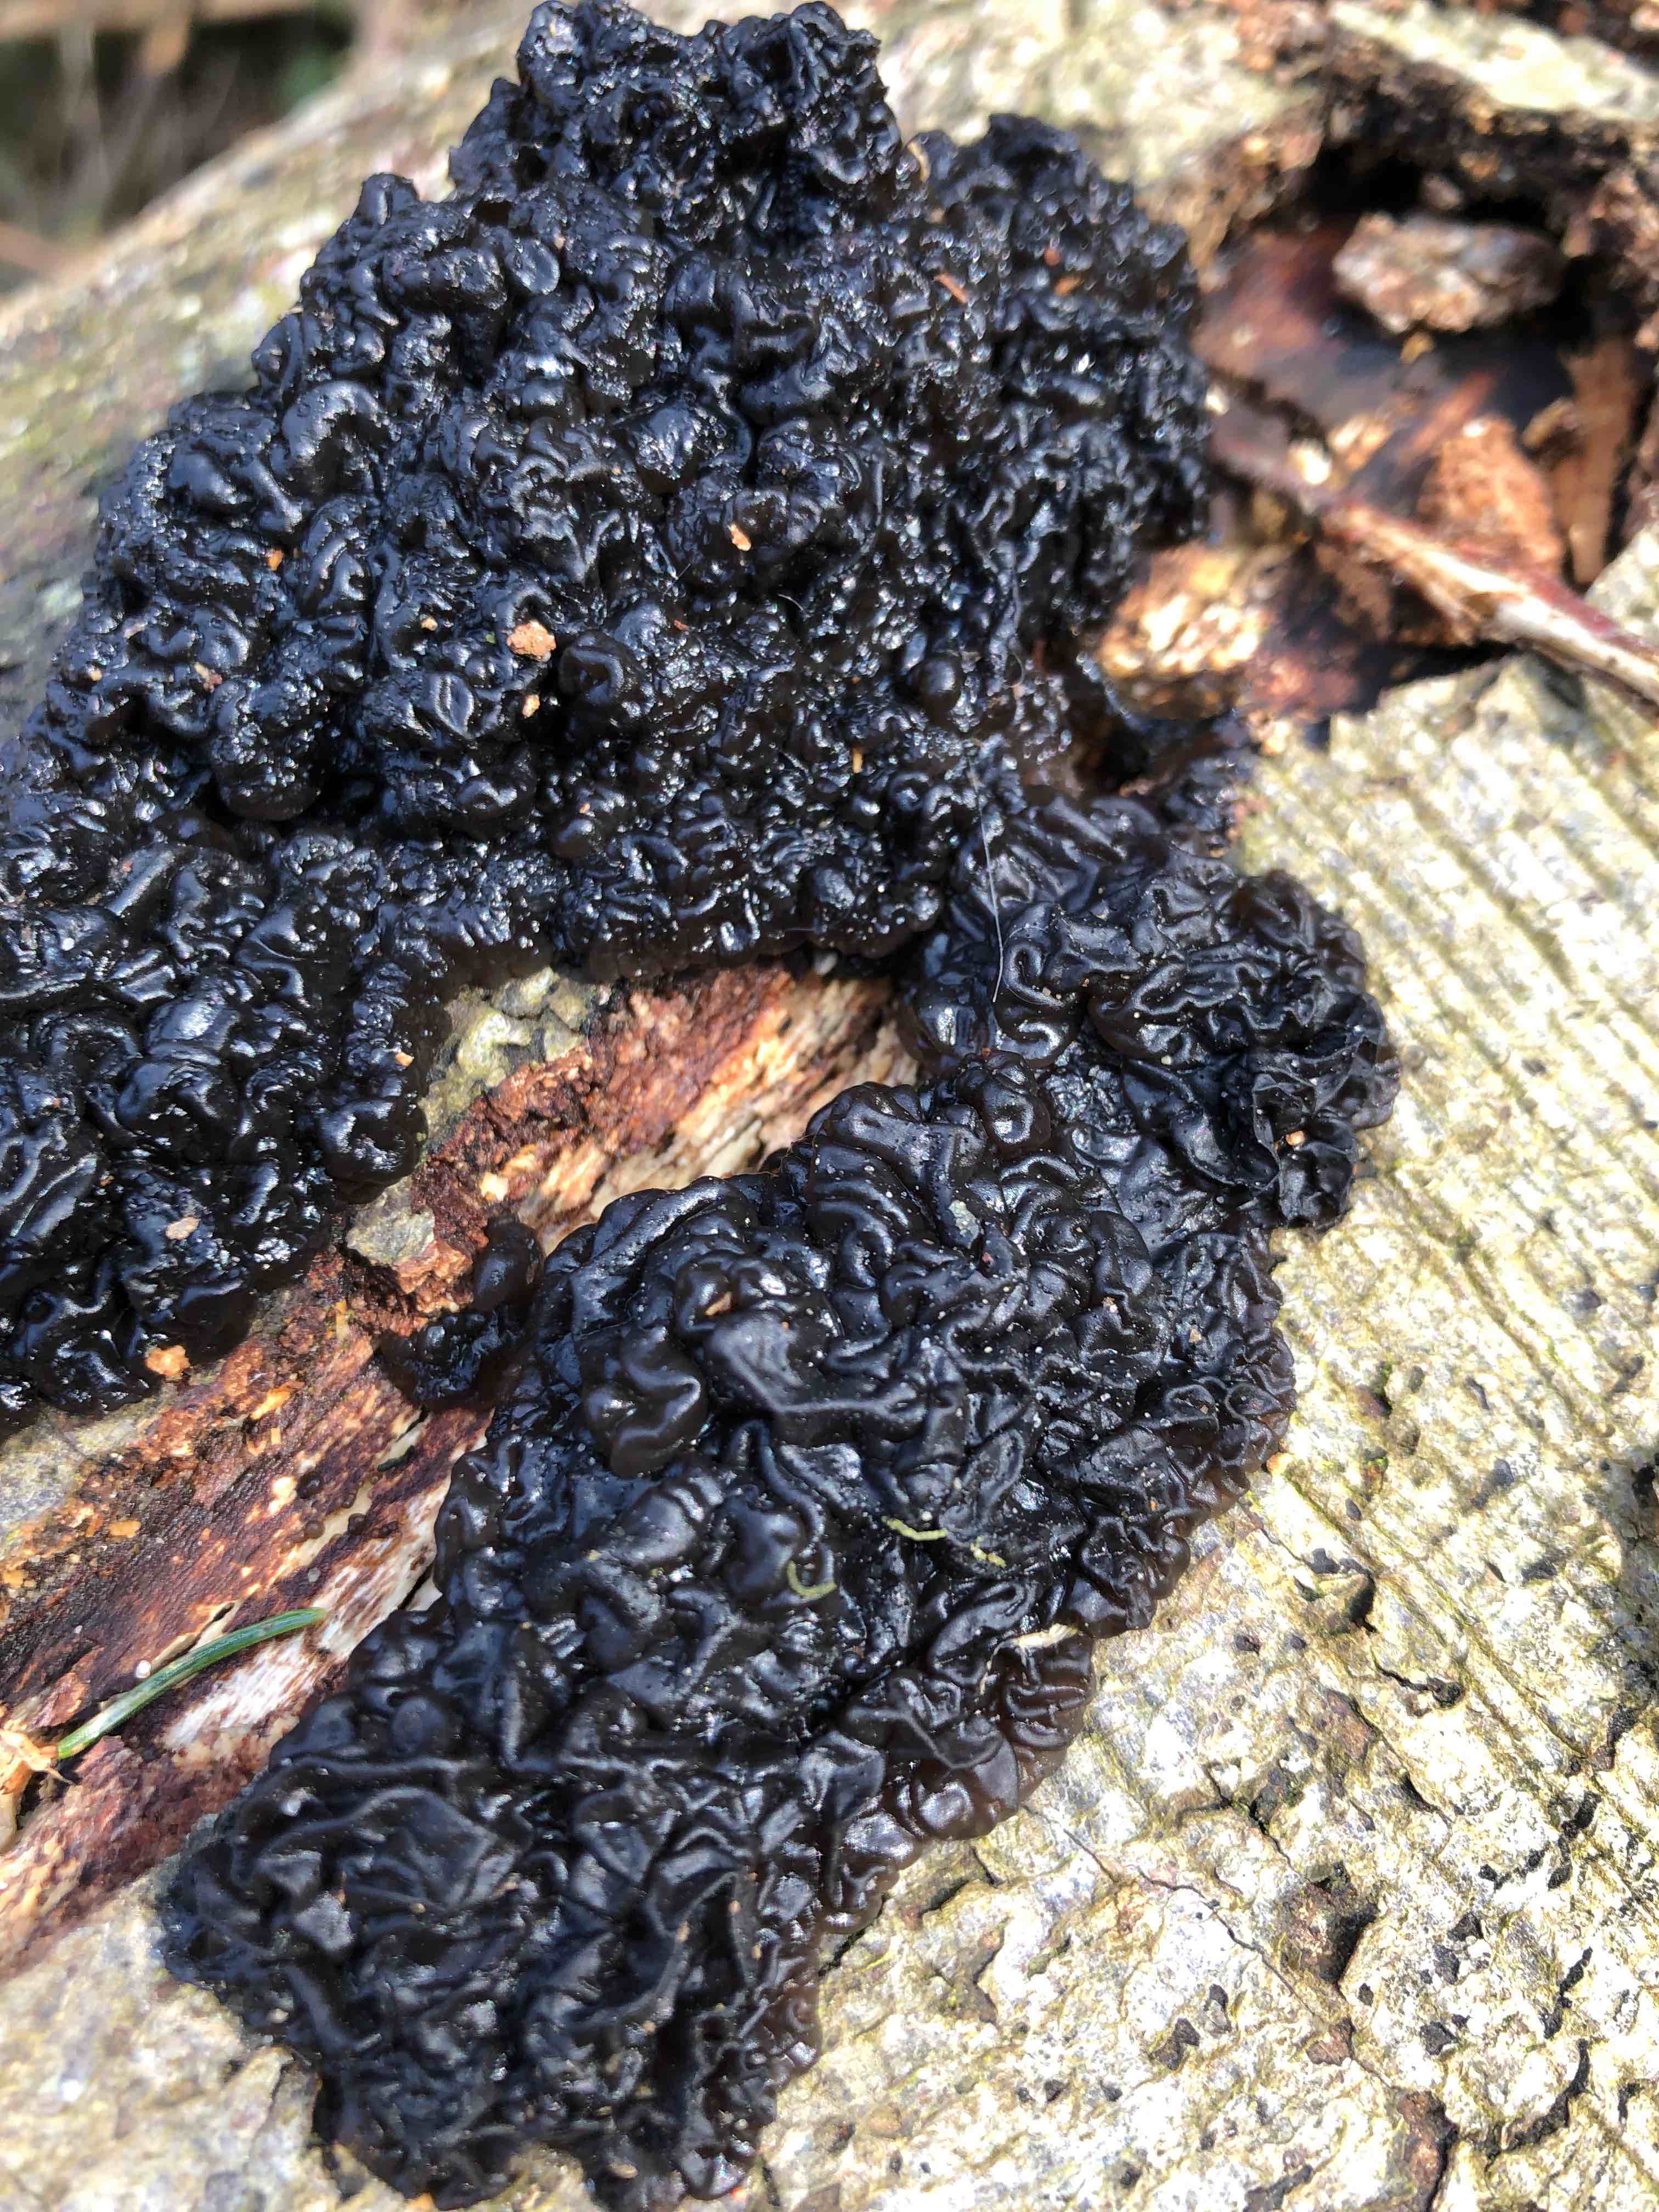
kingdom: Fungi
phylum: Basidiomycota
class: Agaricomycetes
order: Auriculariales
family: Auriculariaceae
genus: Exidia
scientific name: Exidia nigricans
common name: almindelig bævretop
